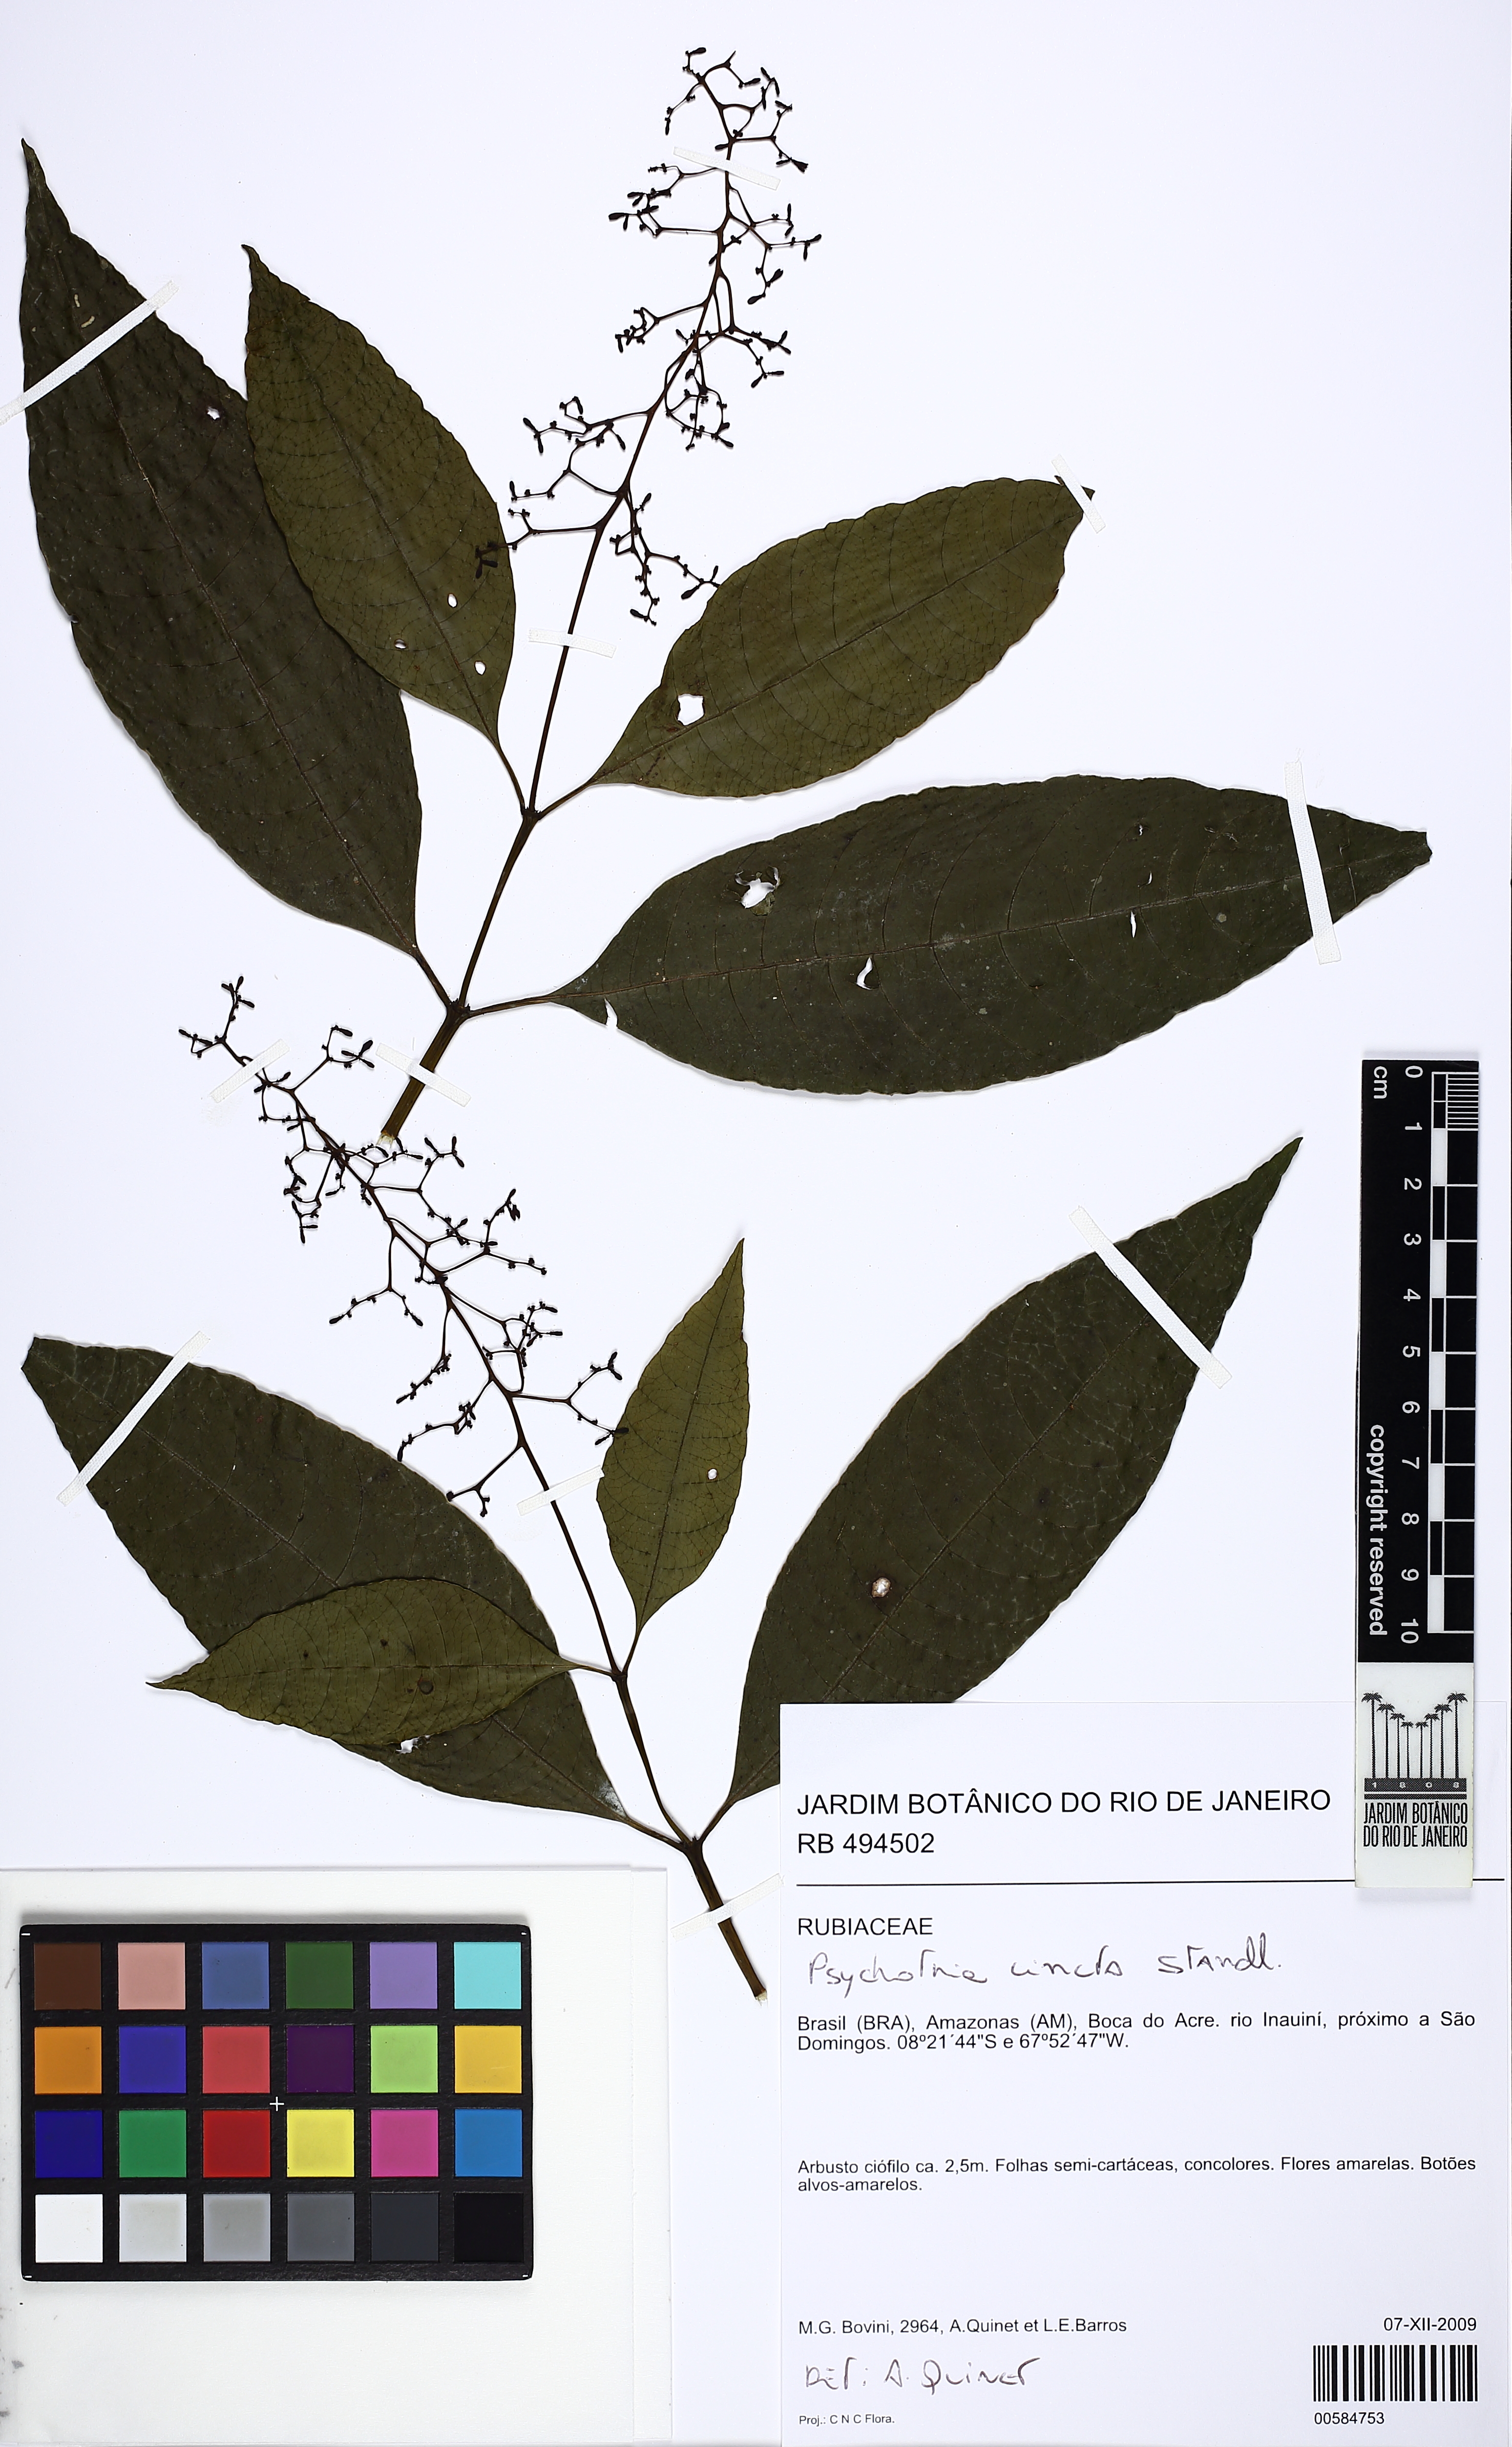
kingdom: Plantae
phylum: Tracheophyta
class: Magnoliopsida
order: Gentianales
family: Rubiaceae
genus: Palicourea
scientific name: Palicourea longicuspis
